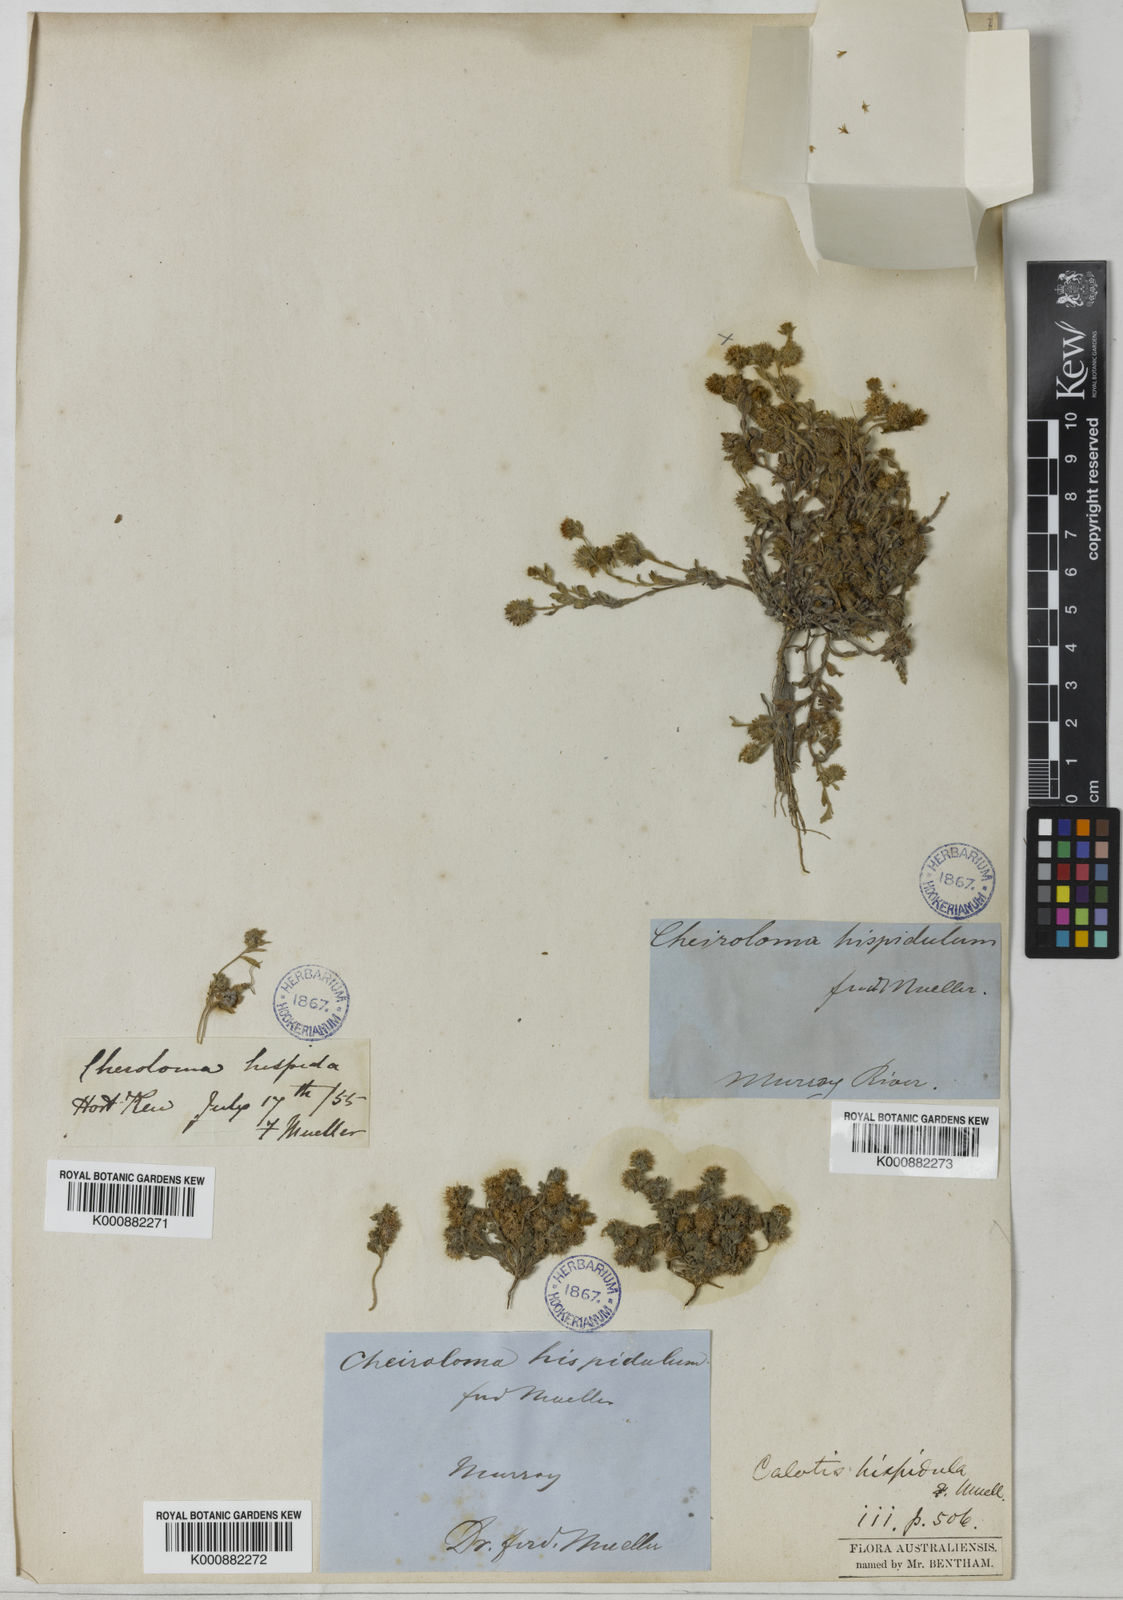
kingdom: Plantae
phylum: Tracheophyta
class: Magnoliopsida
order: Asterales
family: Asteraceae
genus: Calotis
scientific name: Calotis hispidula
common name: Bogan-flea
